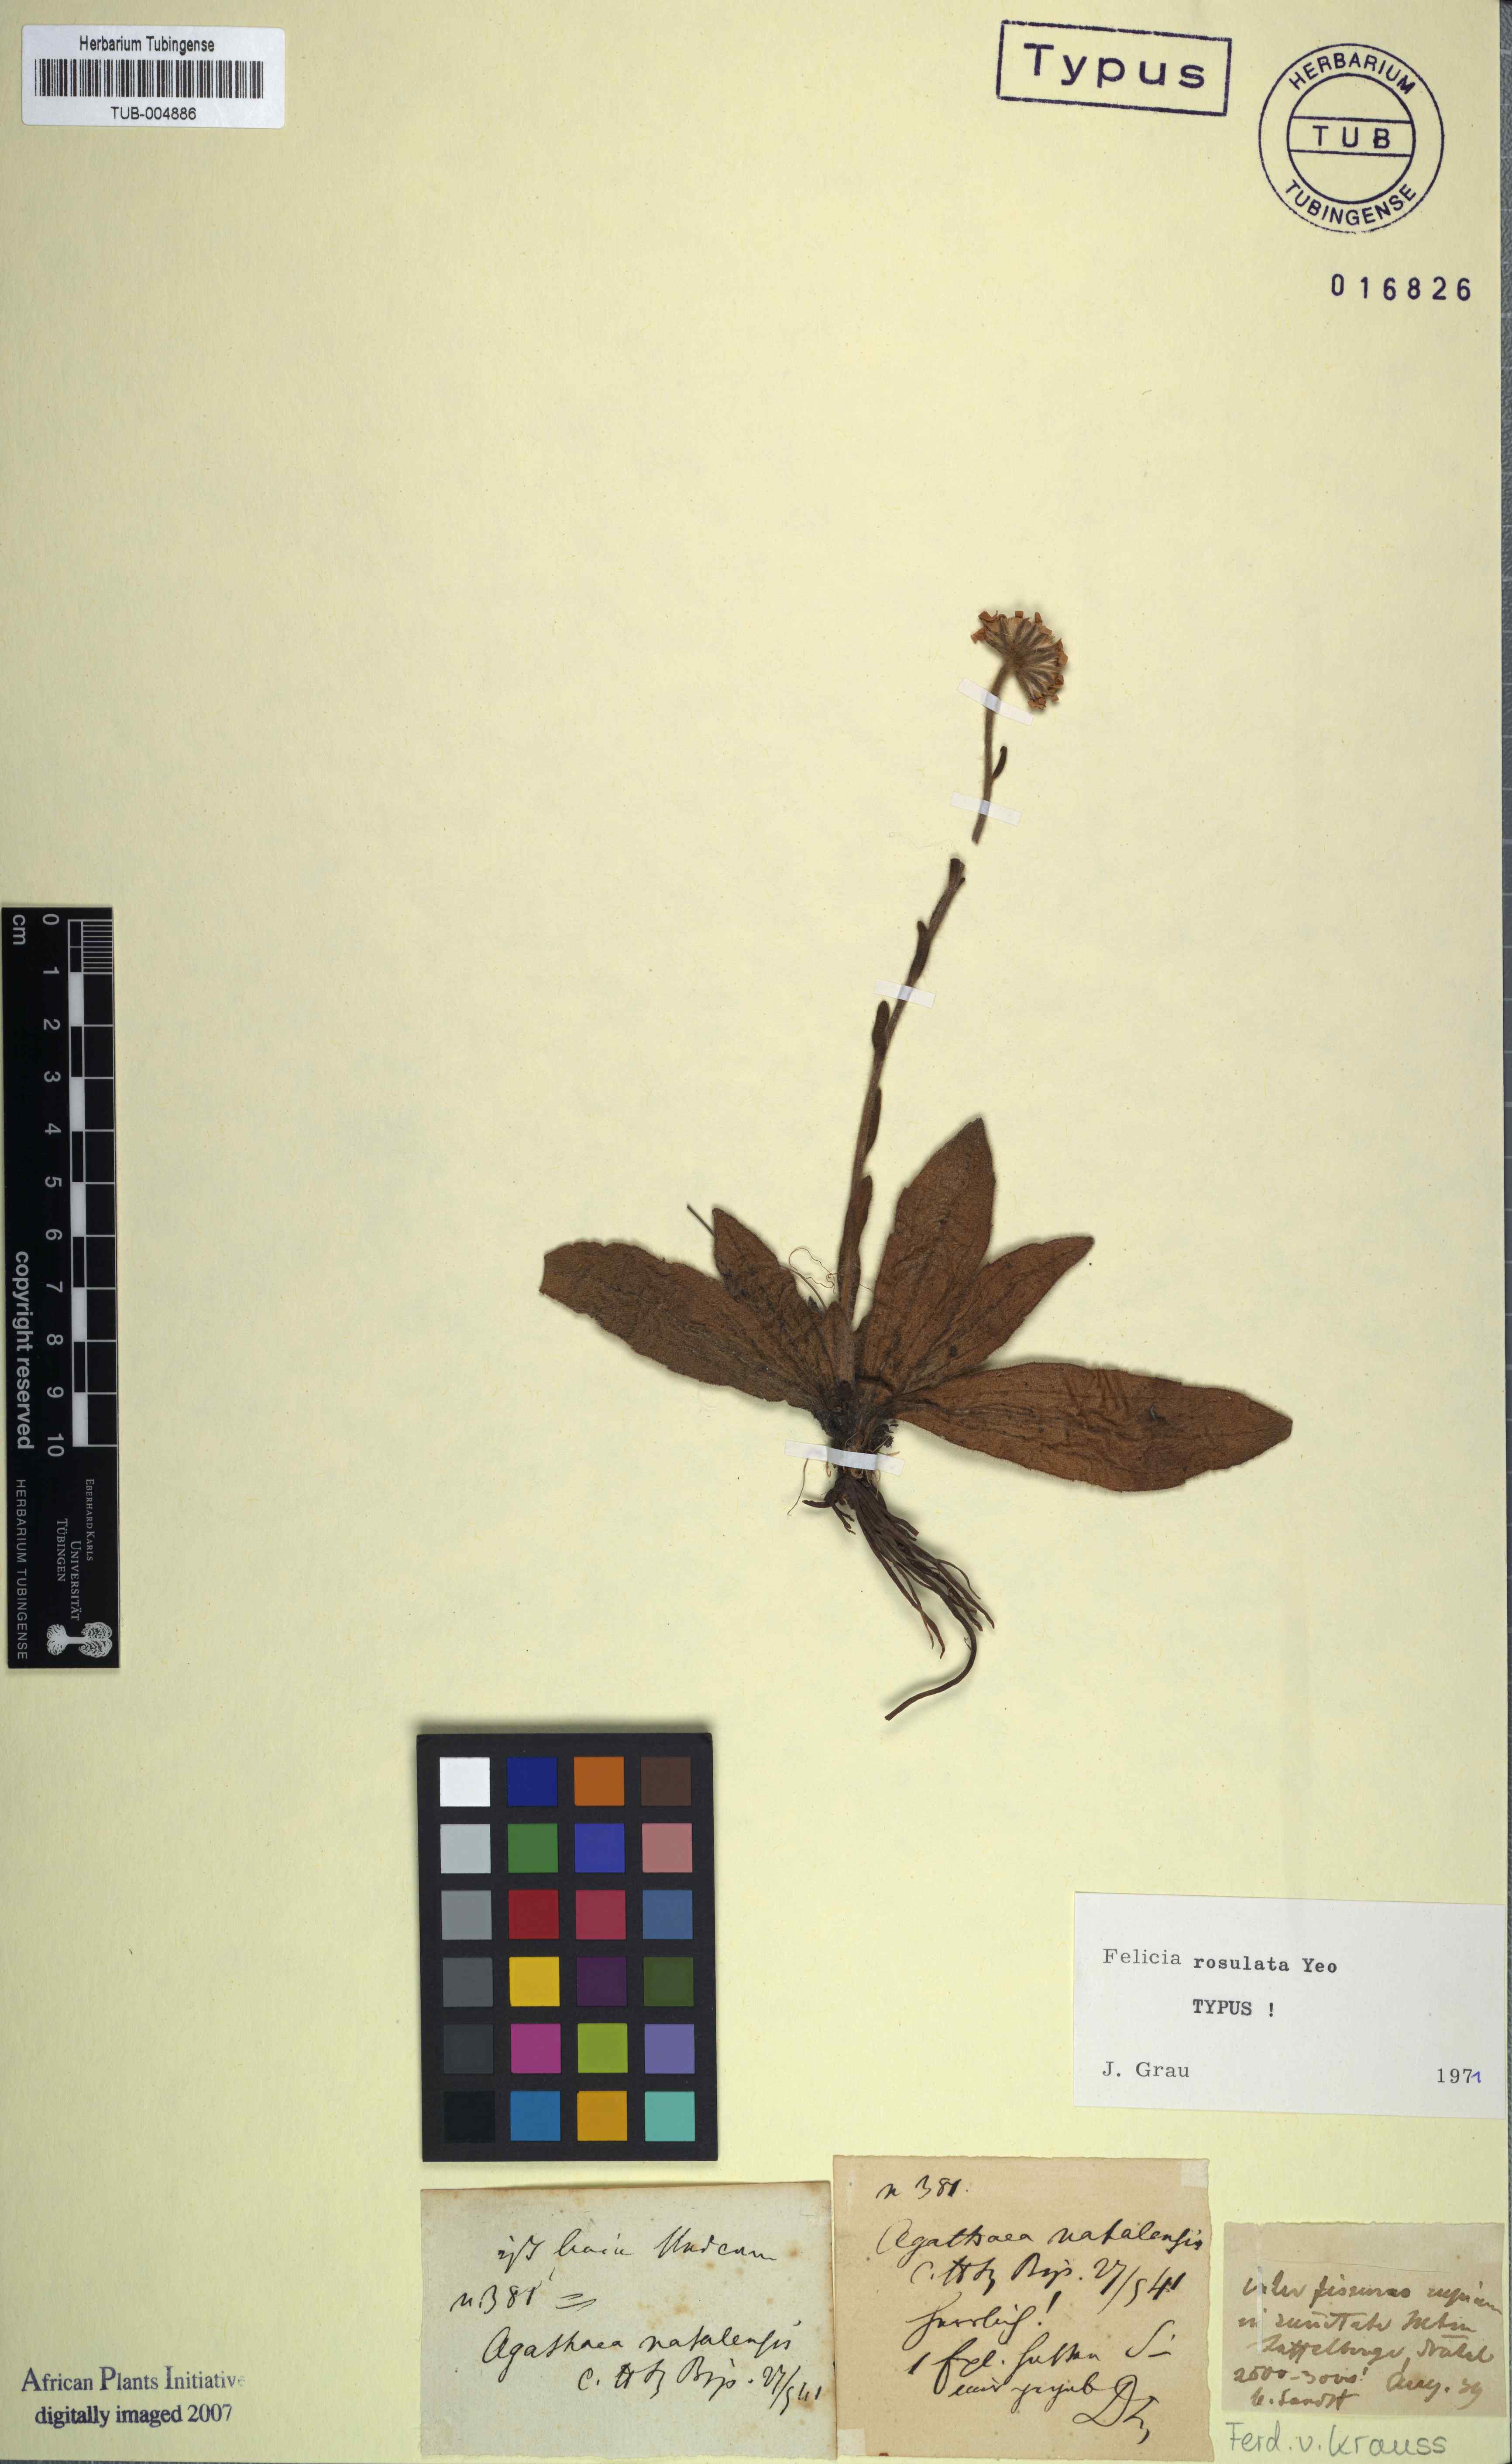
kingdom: Plantae
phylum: Tracheophyta
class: Magnoliopsida
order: Asterales
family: Asteraceae
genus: Felicia
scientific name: Felicia rosulata
